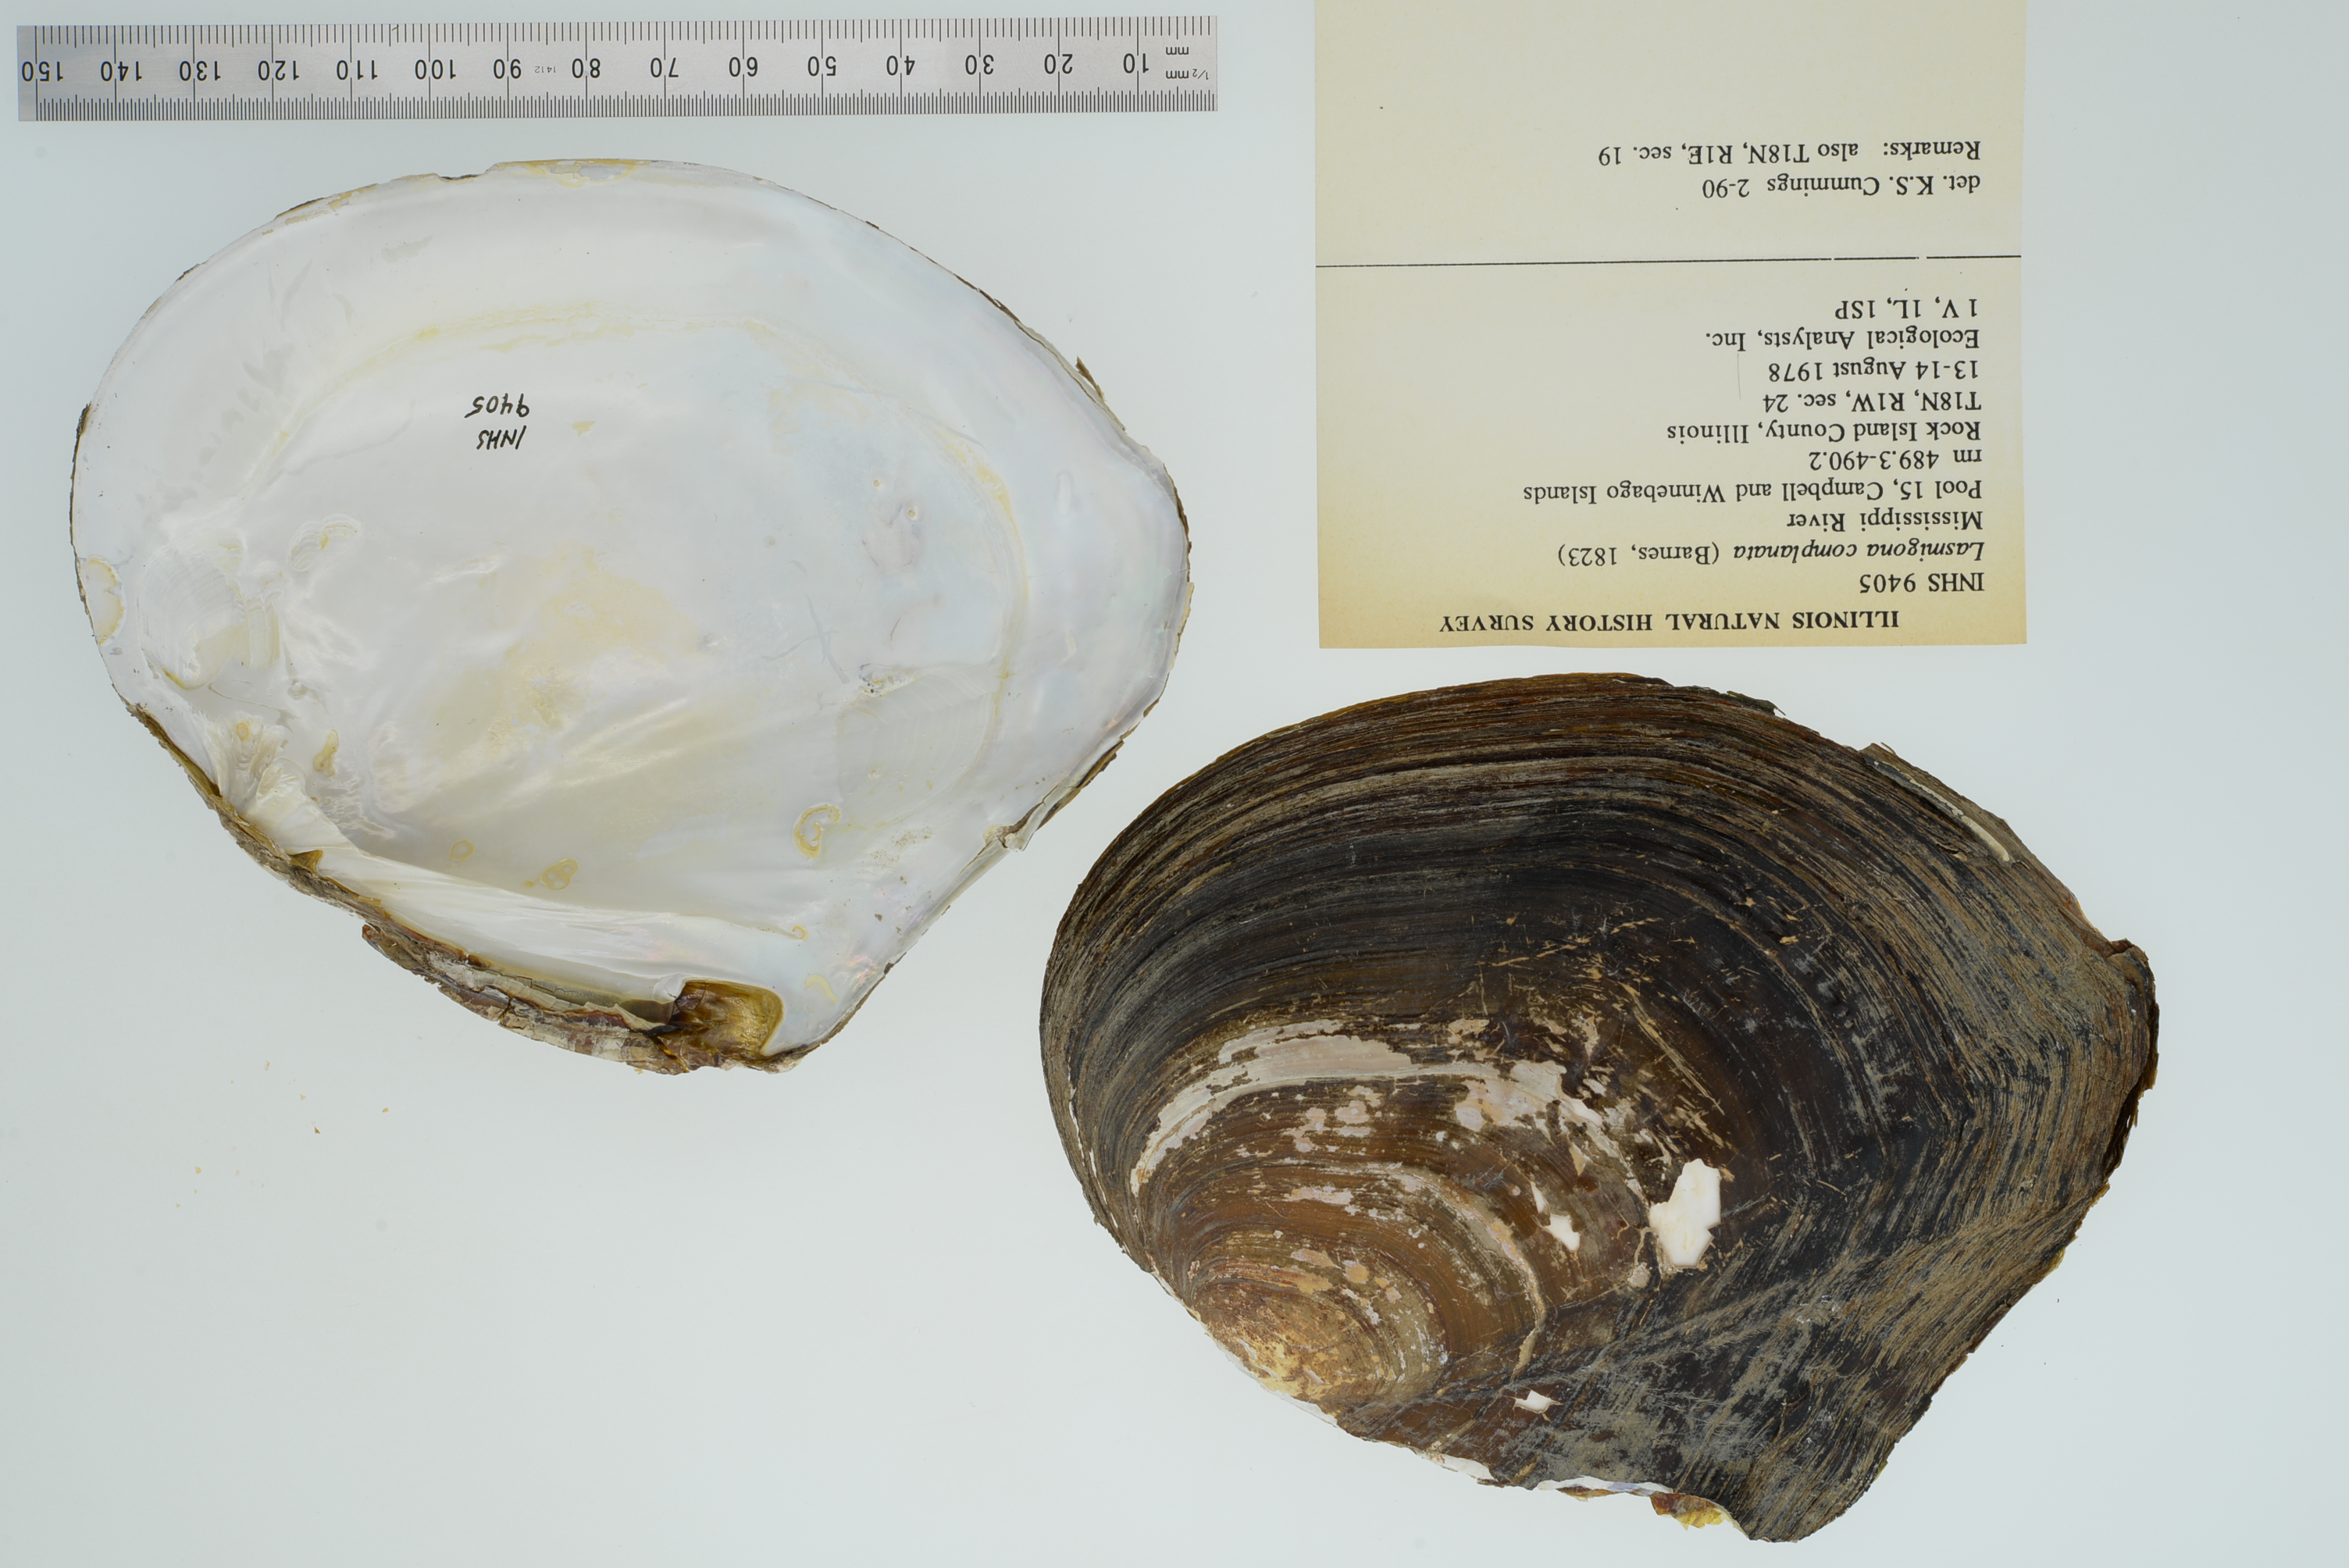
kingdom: Animalia
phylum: Mollusca
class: Bivalvia
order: Unionida
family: Unionidae
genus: Lasmigona
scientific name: Lasmigona complanata
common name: White heelsplitter
